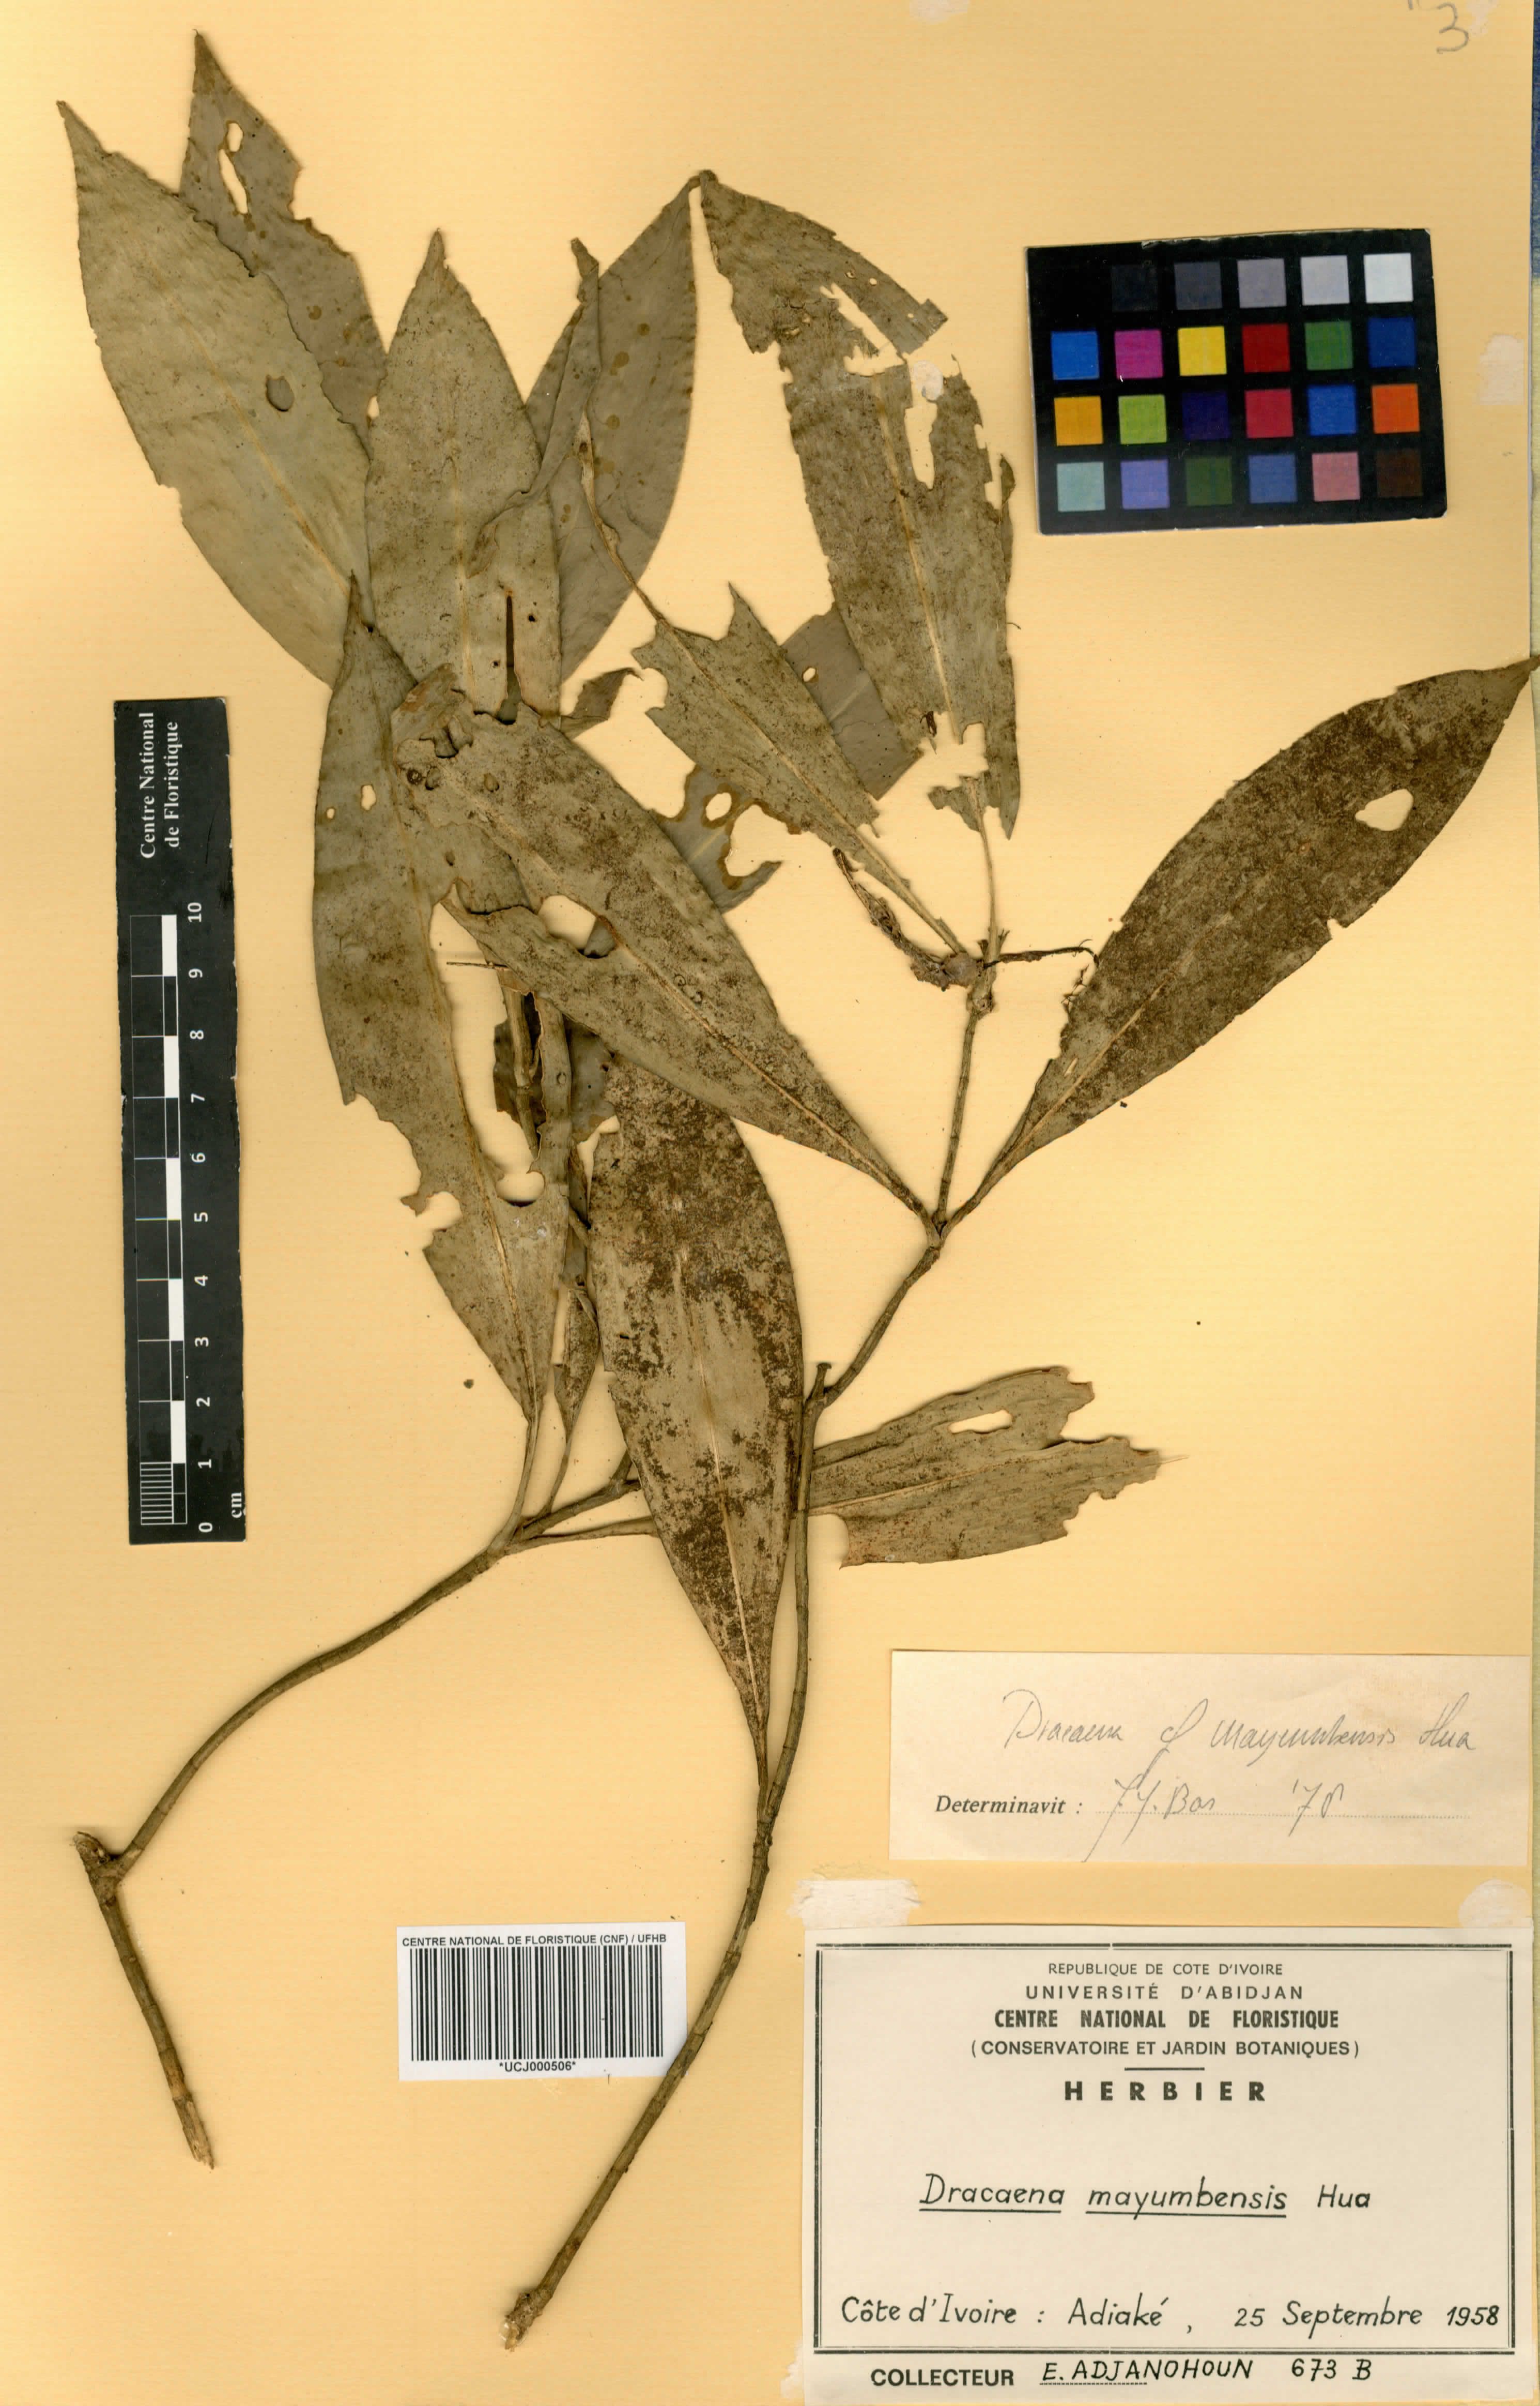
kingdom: Plantae
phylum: Tracheophyta
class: Liliopsida
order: Asparagales
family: Asparagaceae
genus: Dracaena
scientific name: Dracaena camerooniana
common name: Dragon tree
